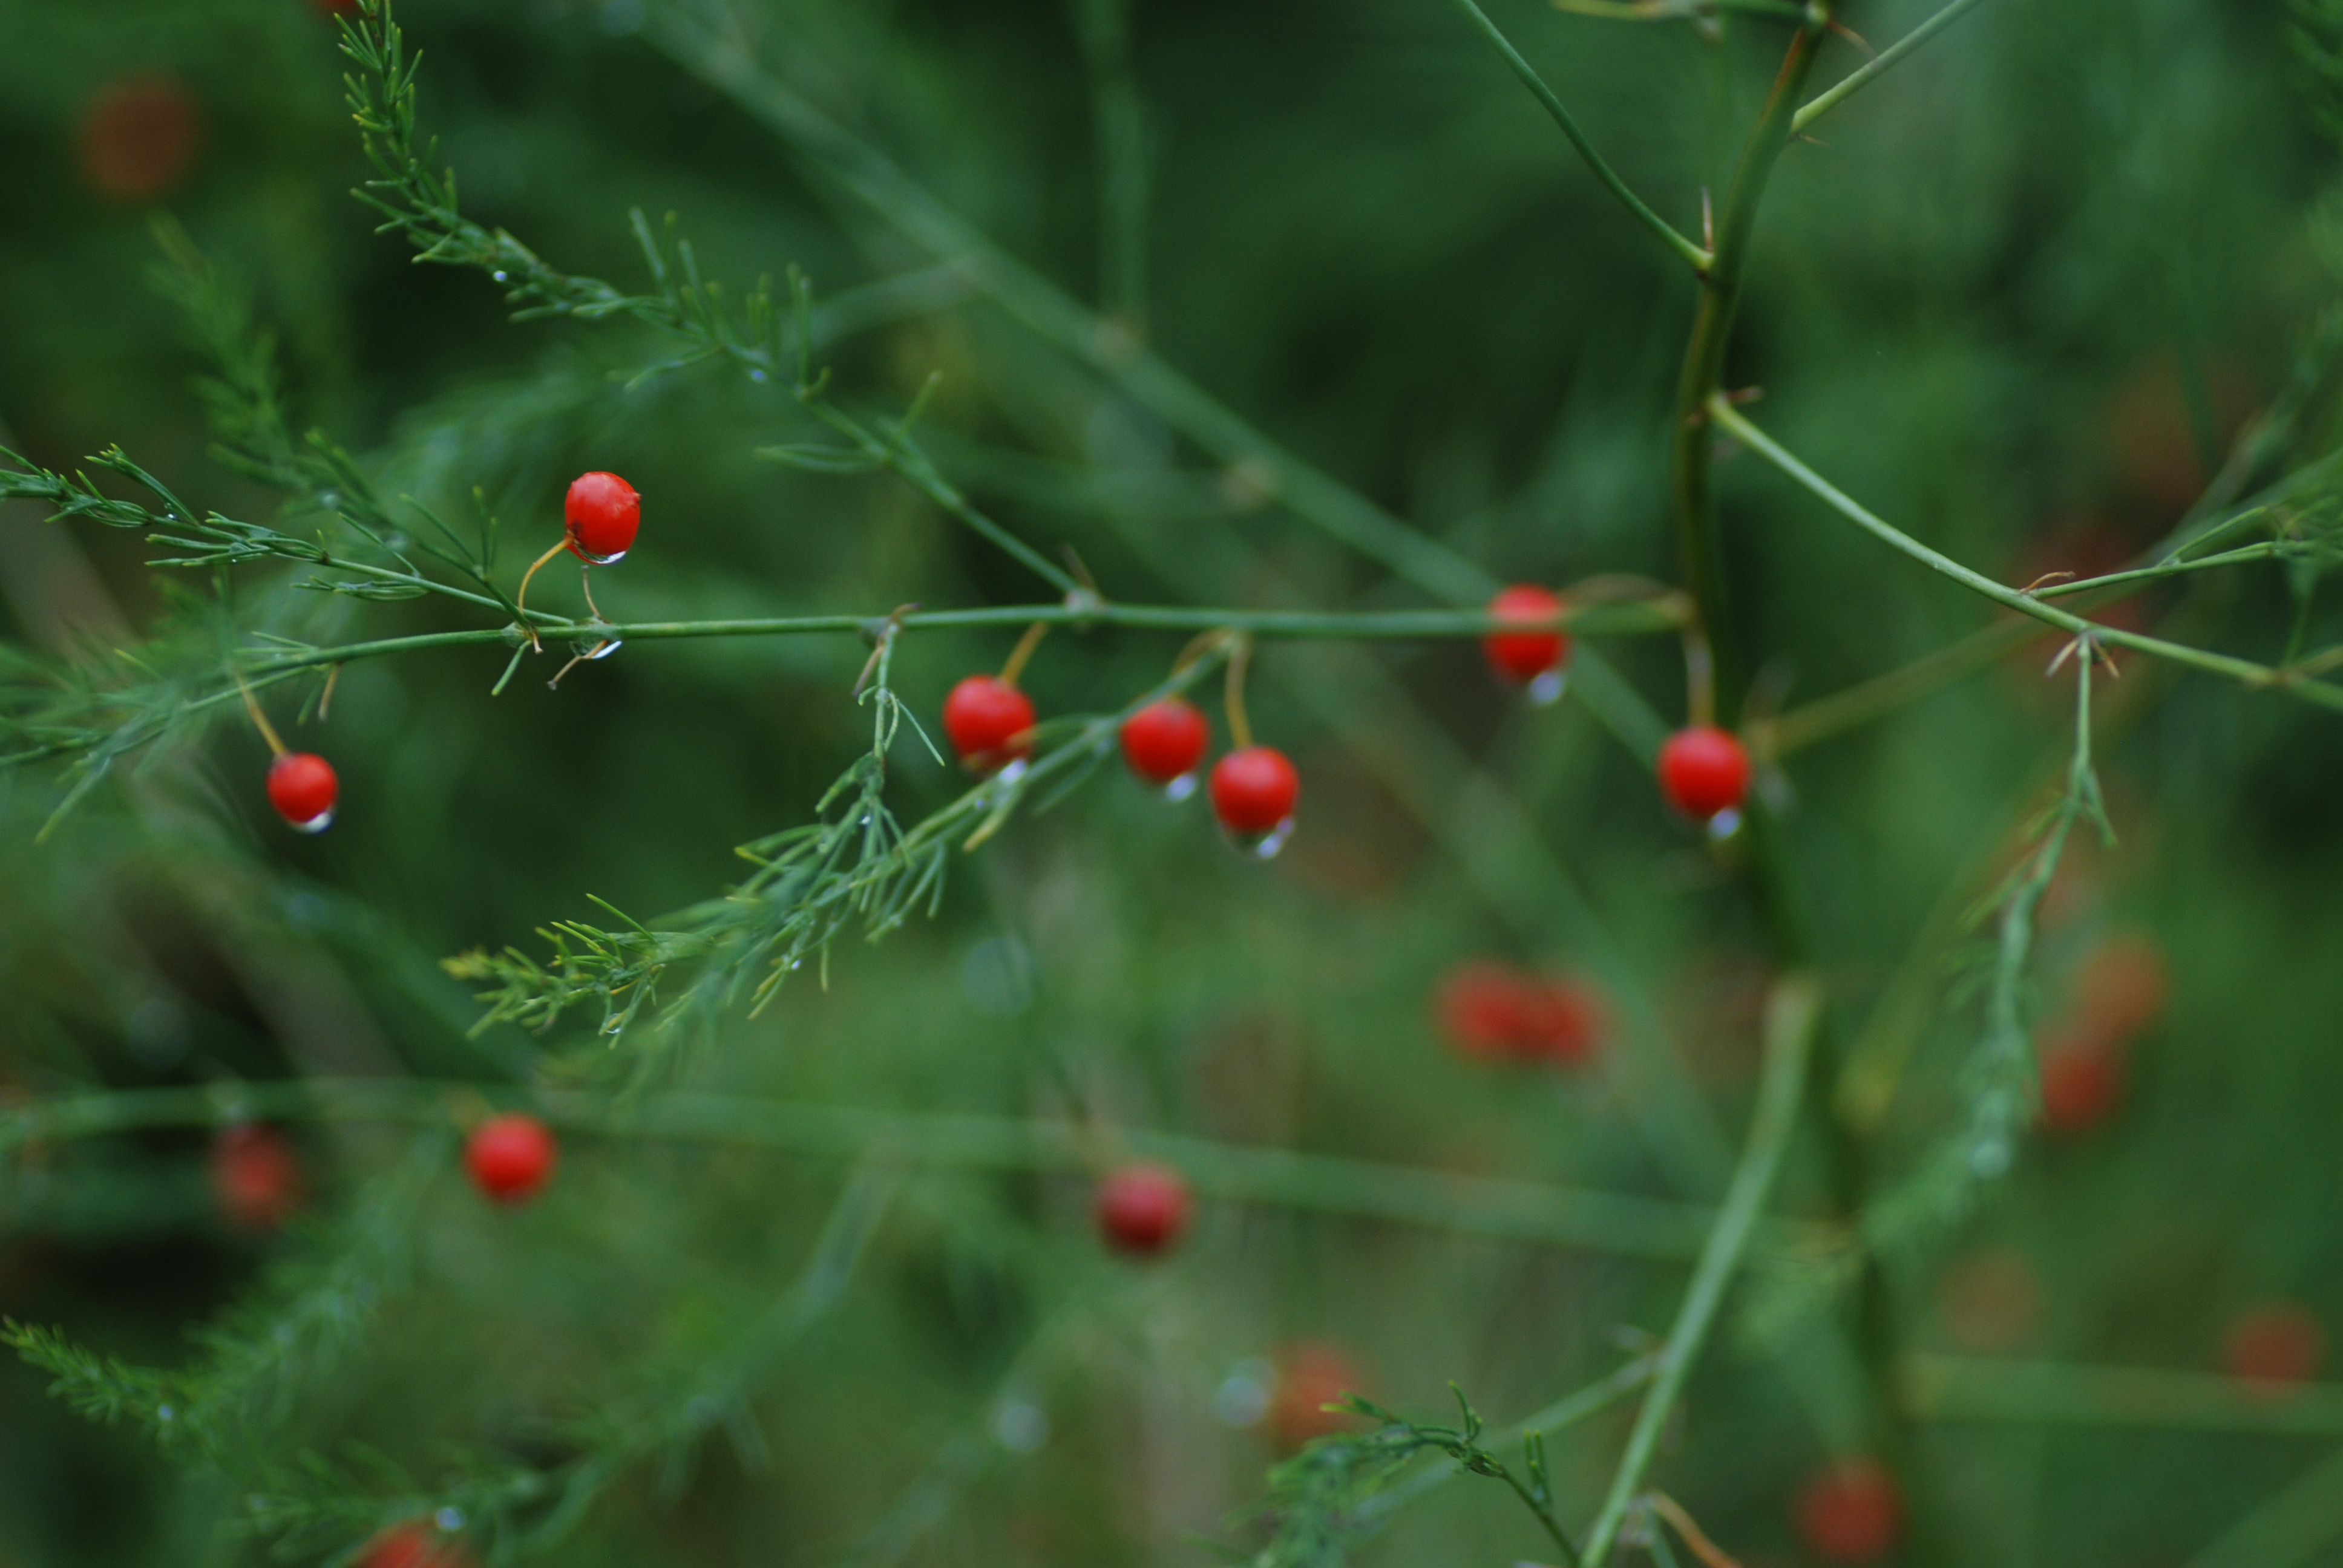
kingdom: Plantae
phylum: Tracheophyta
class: Liliopsida
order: Asparagales
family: Asparagaceae
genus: Asparagus
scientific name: Asparagus officinalis
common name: Garden asparagus
